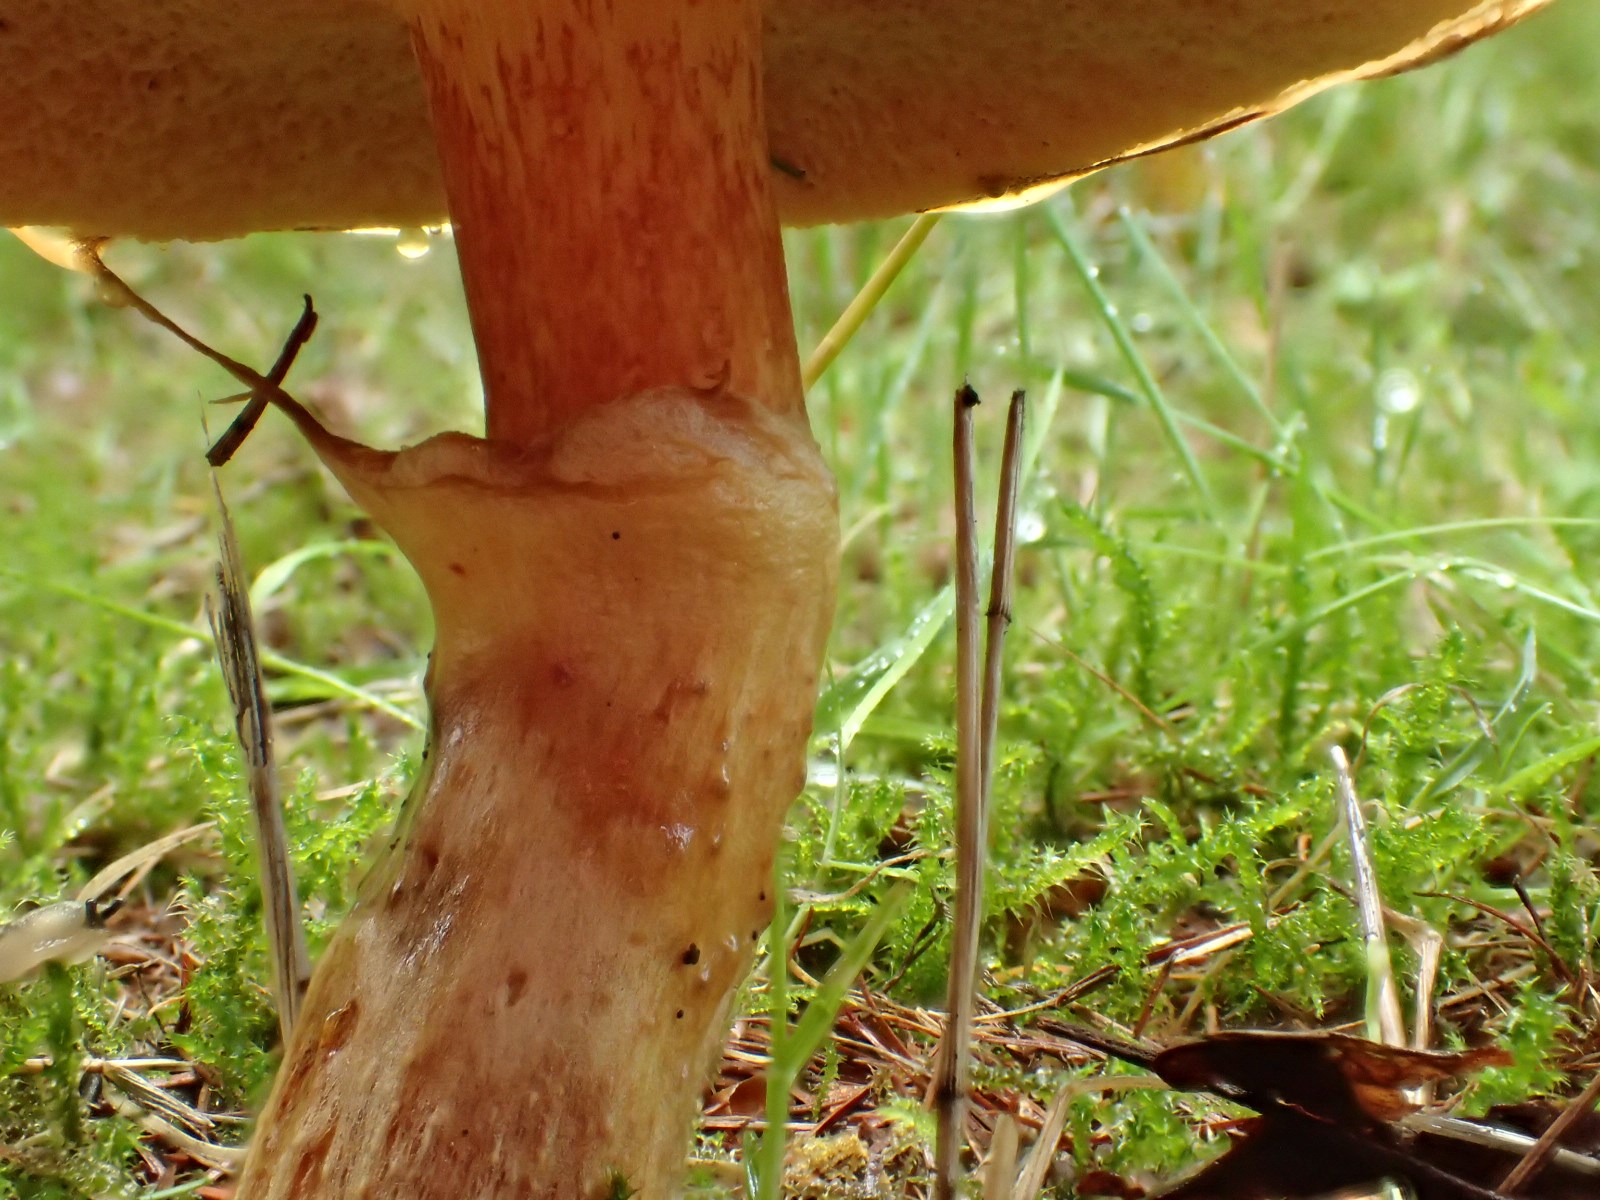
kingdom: Fungi
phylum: Basidiomycota
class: Agaricomycetes
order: Boletales
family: Suillaceae
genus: Suillus
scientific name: Suillus grevillei
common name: lærke-slimrørhat
